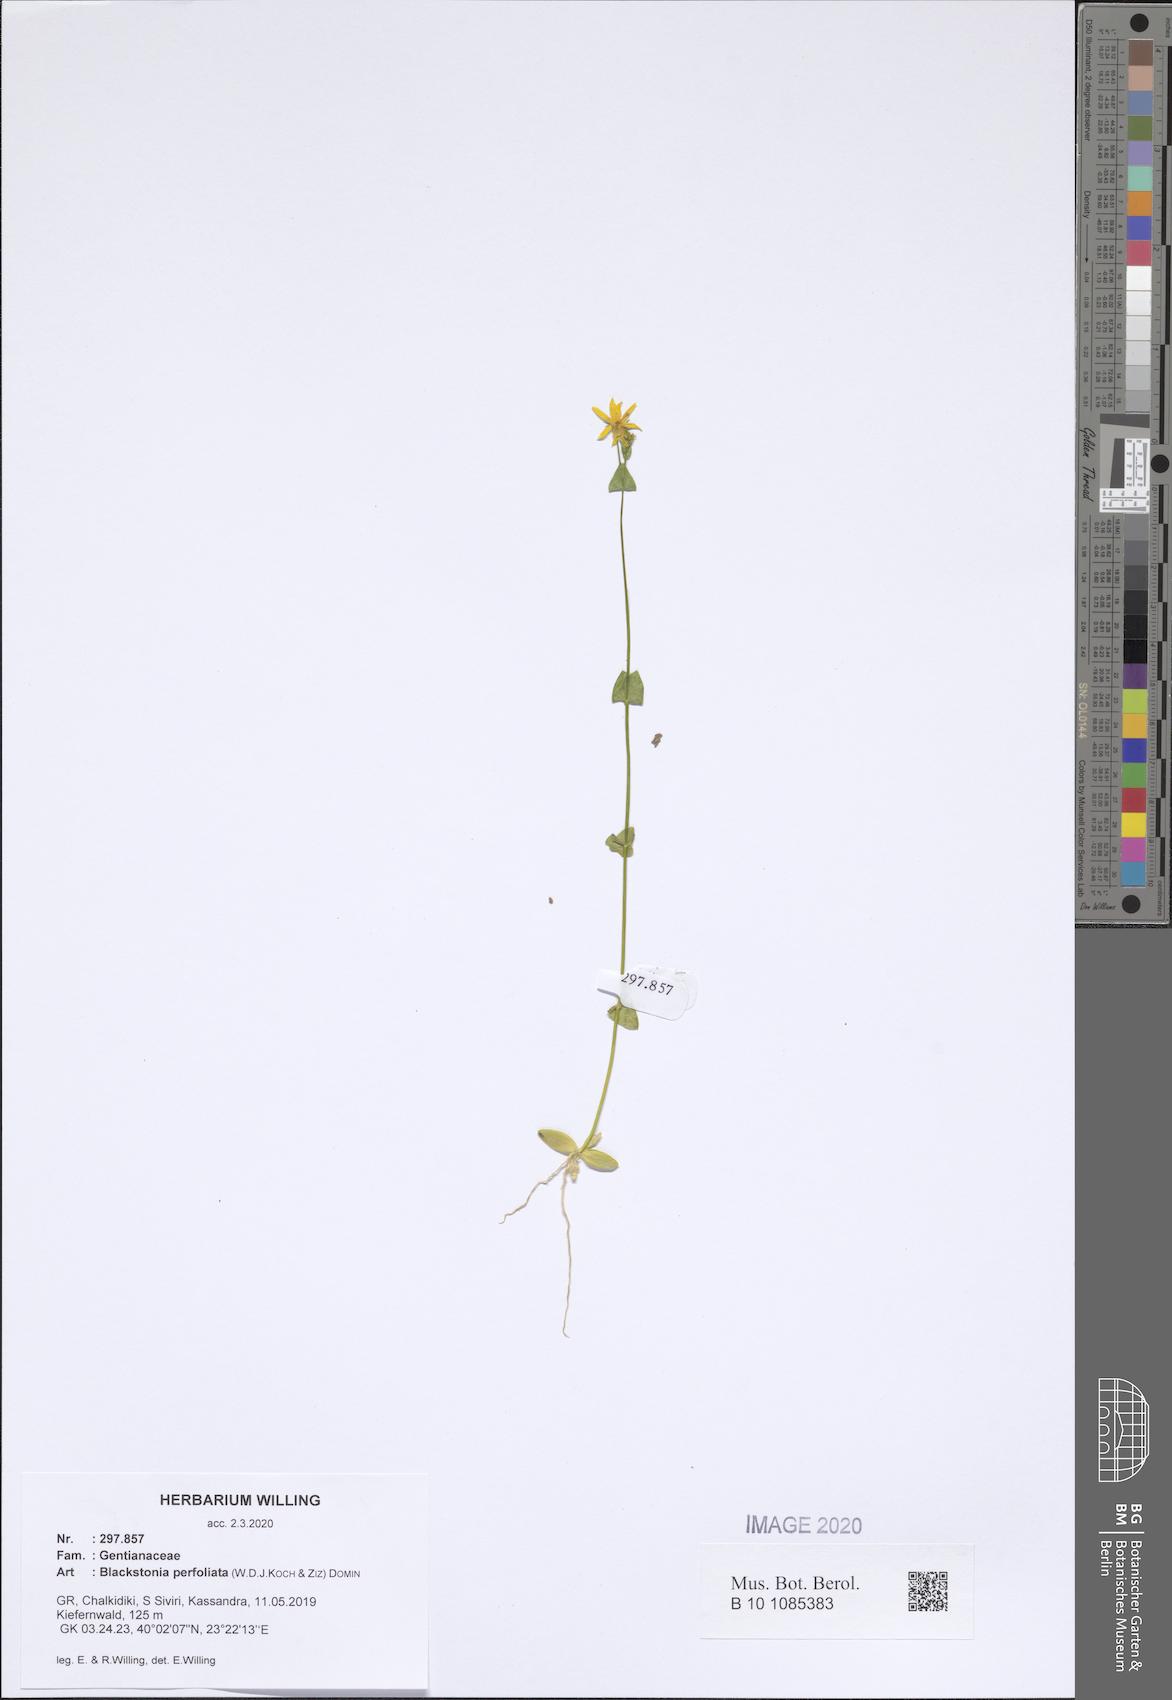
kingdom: Plantae
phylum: Tracheophyta
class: Magnoliopsida
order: Gentianales
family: Gentianaceae
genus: Blackstonia
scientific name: Blackstonia perfoliata
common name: Yellow-wort
